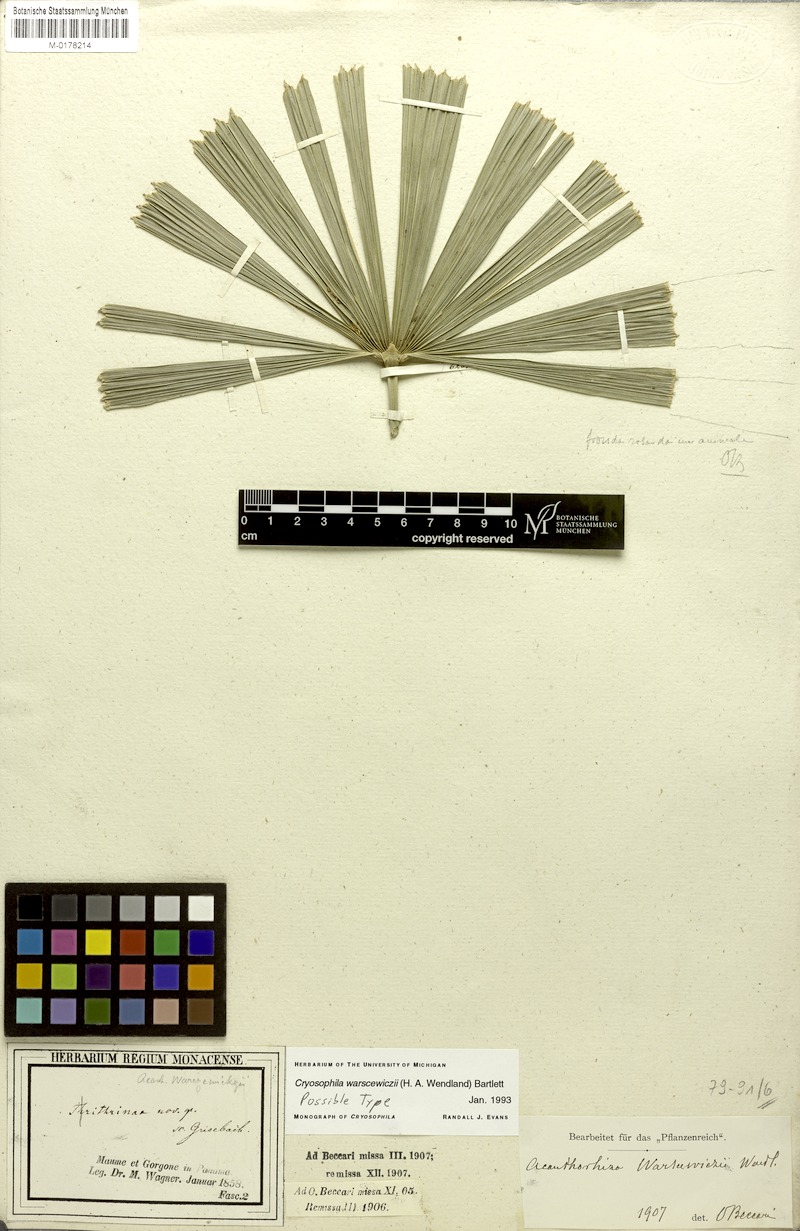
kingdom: Plantae
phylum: Tracheophyta
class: Liliopsida
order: Arecales
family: Arecaceae
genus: Cryosophila
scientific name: Cryosophila warscewiczii
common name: Root-spine palm
